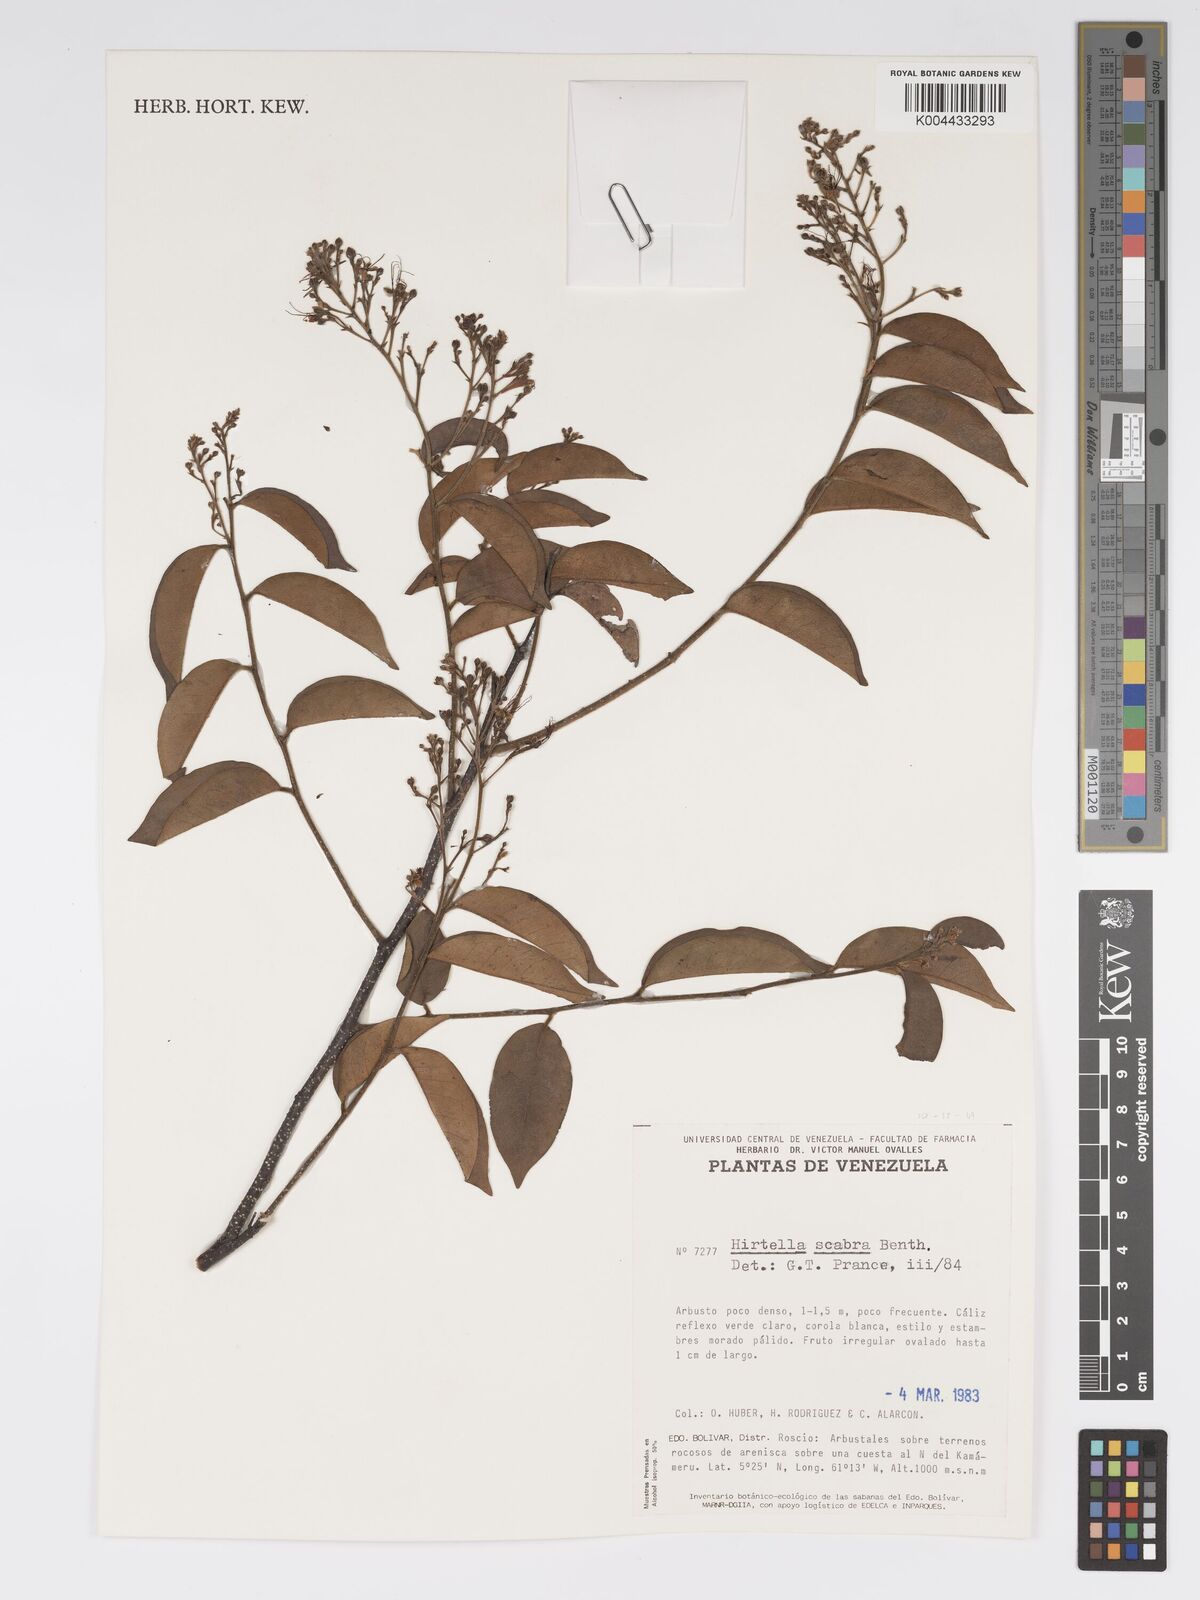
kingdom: Plantae
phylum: Tracheophyta
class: Magnoliopsida
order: Malpighiales
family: Chrysobalanaceae
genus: Hirtella
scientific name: Hirtella scabra
